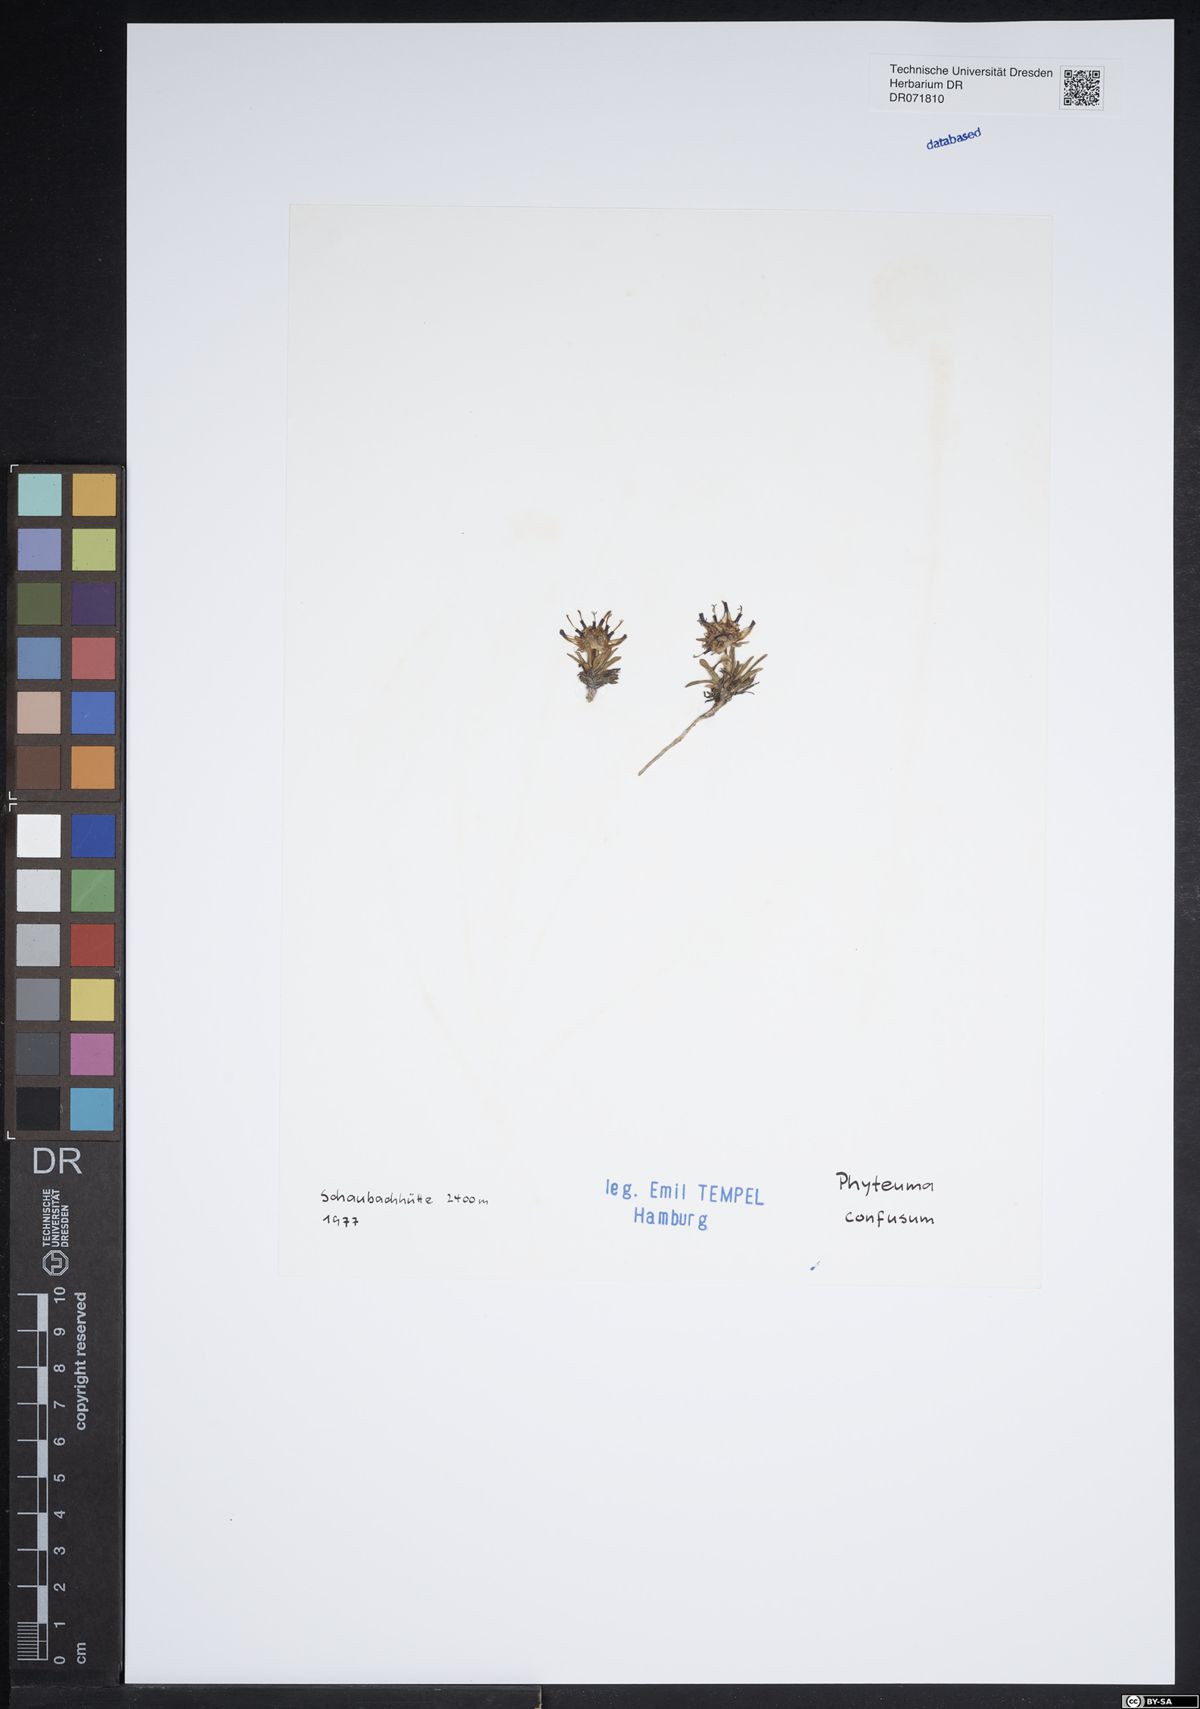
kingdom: Plantae
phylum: Tracheophyta
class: Magnoliopsida
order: Asterales
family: Campanulaceae
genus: Phyteuma
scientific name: Phyteuma confusum
